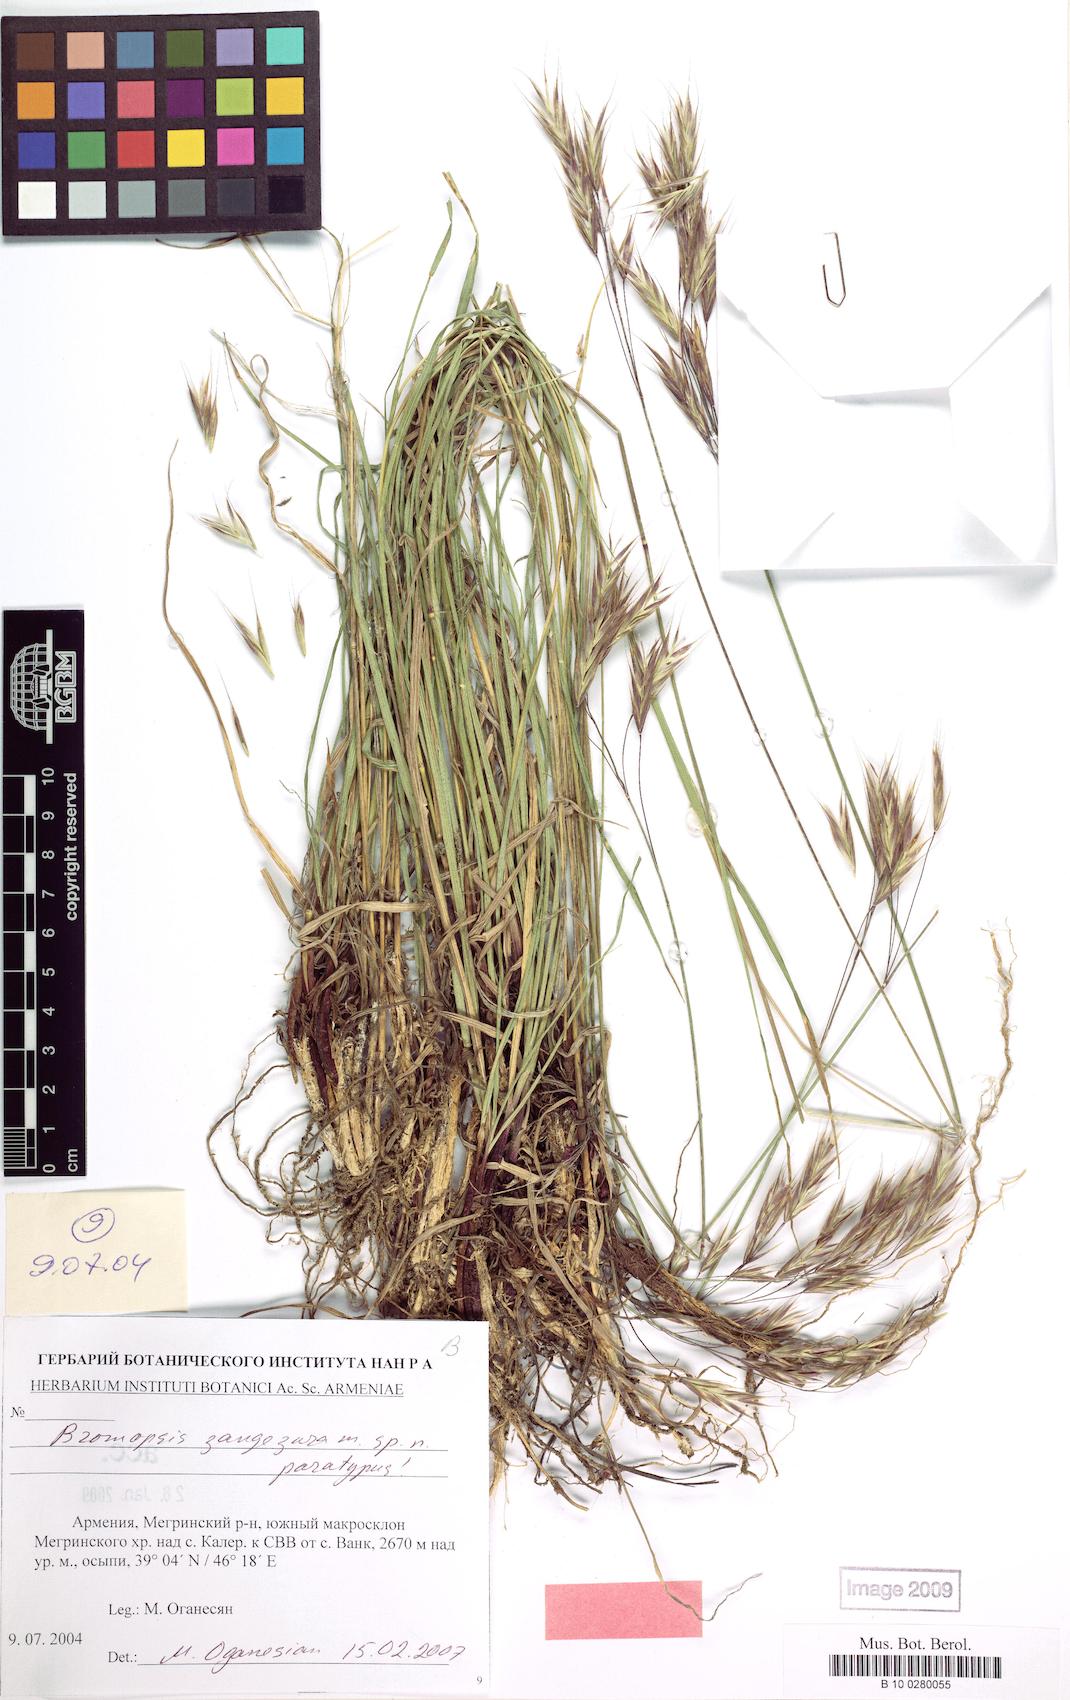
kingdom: Plantae
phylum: Tracheophyta
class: Liliopsida
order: Poales
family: Poaceae
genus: Bromus
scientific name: Bromus erectus
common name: Erect brome
